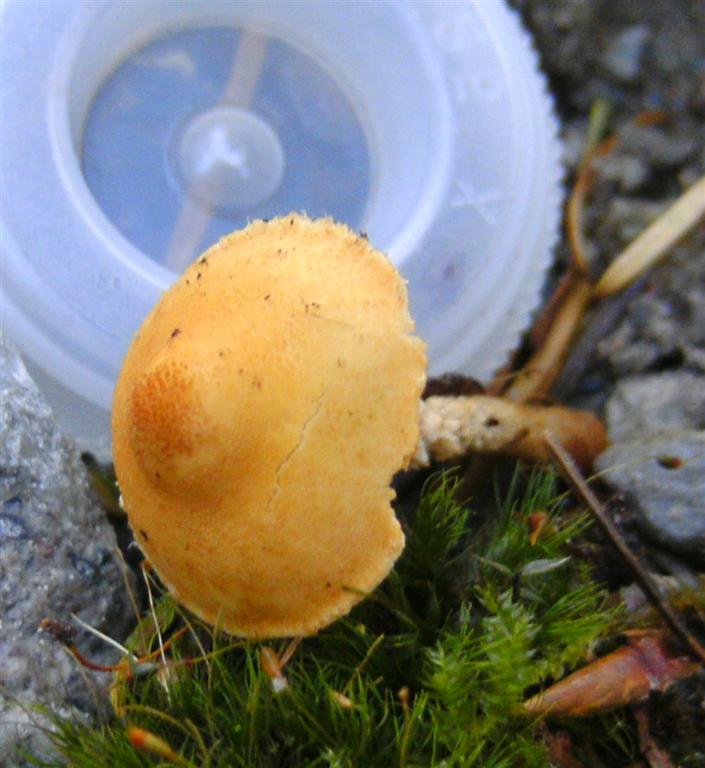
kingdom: Fungi
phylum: Basidiomycota
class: Agaricomycetes
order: Agaricales
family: Tricholomataceae
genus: Cystoderma
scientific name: Cystoderma jasonis
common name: gulkødet grynhat
